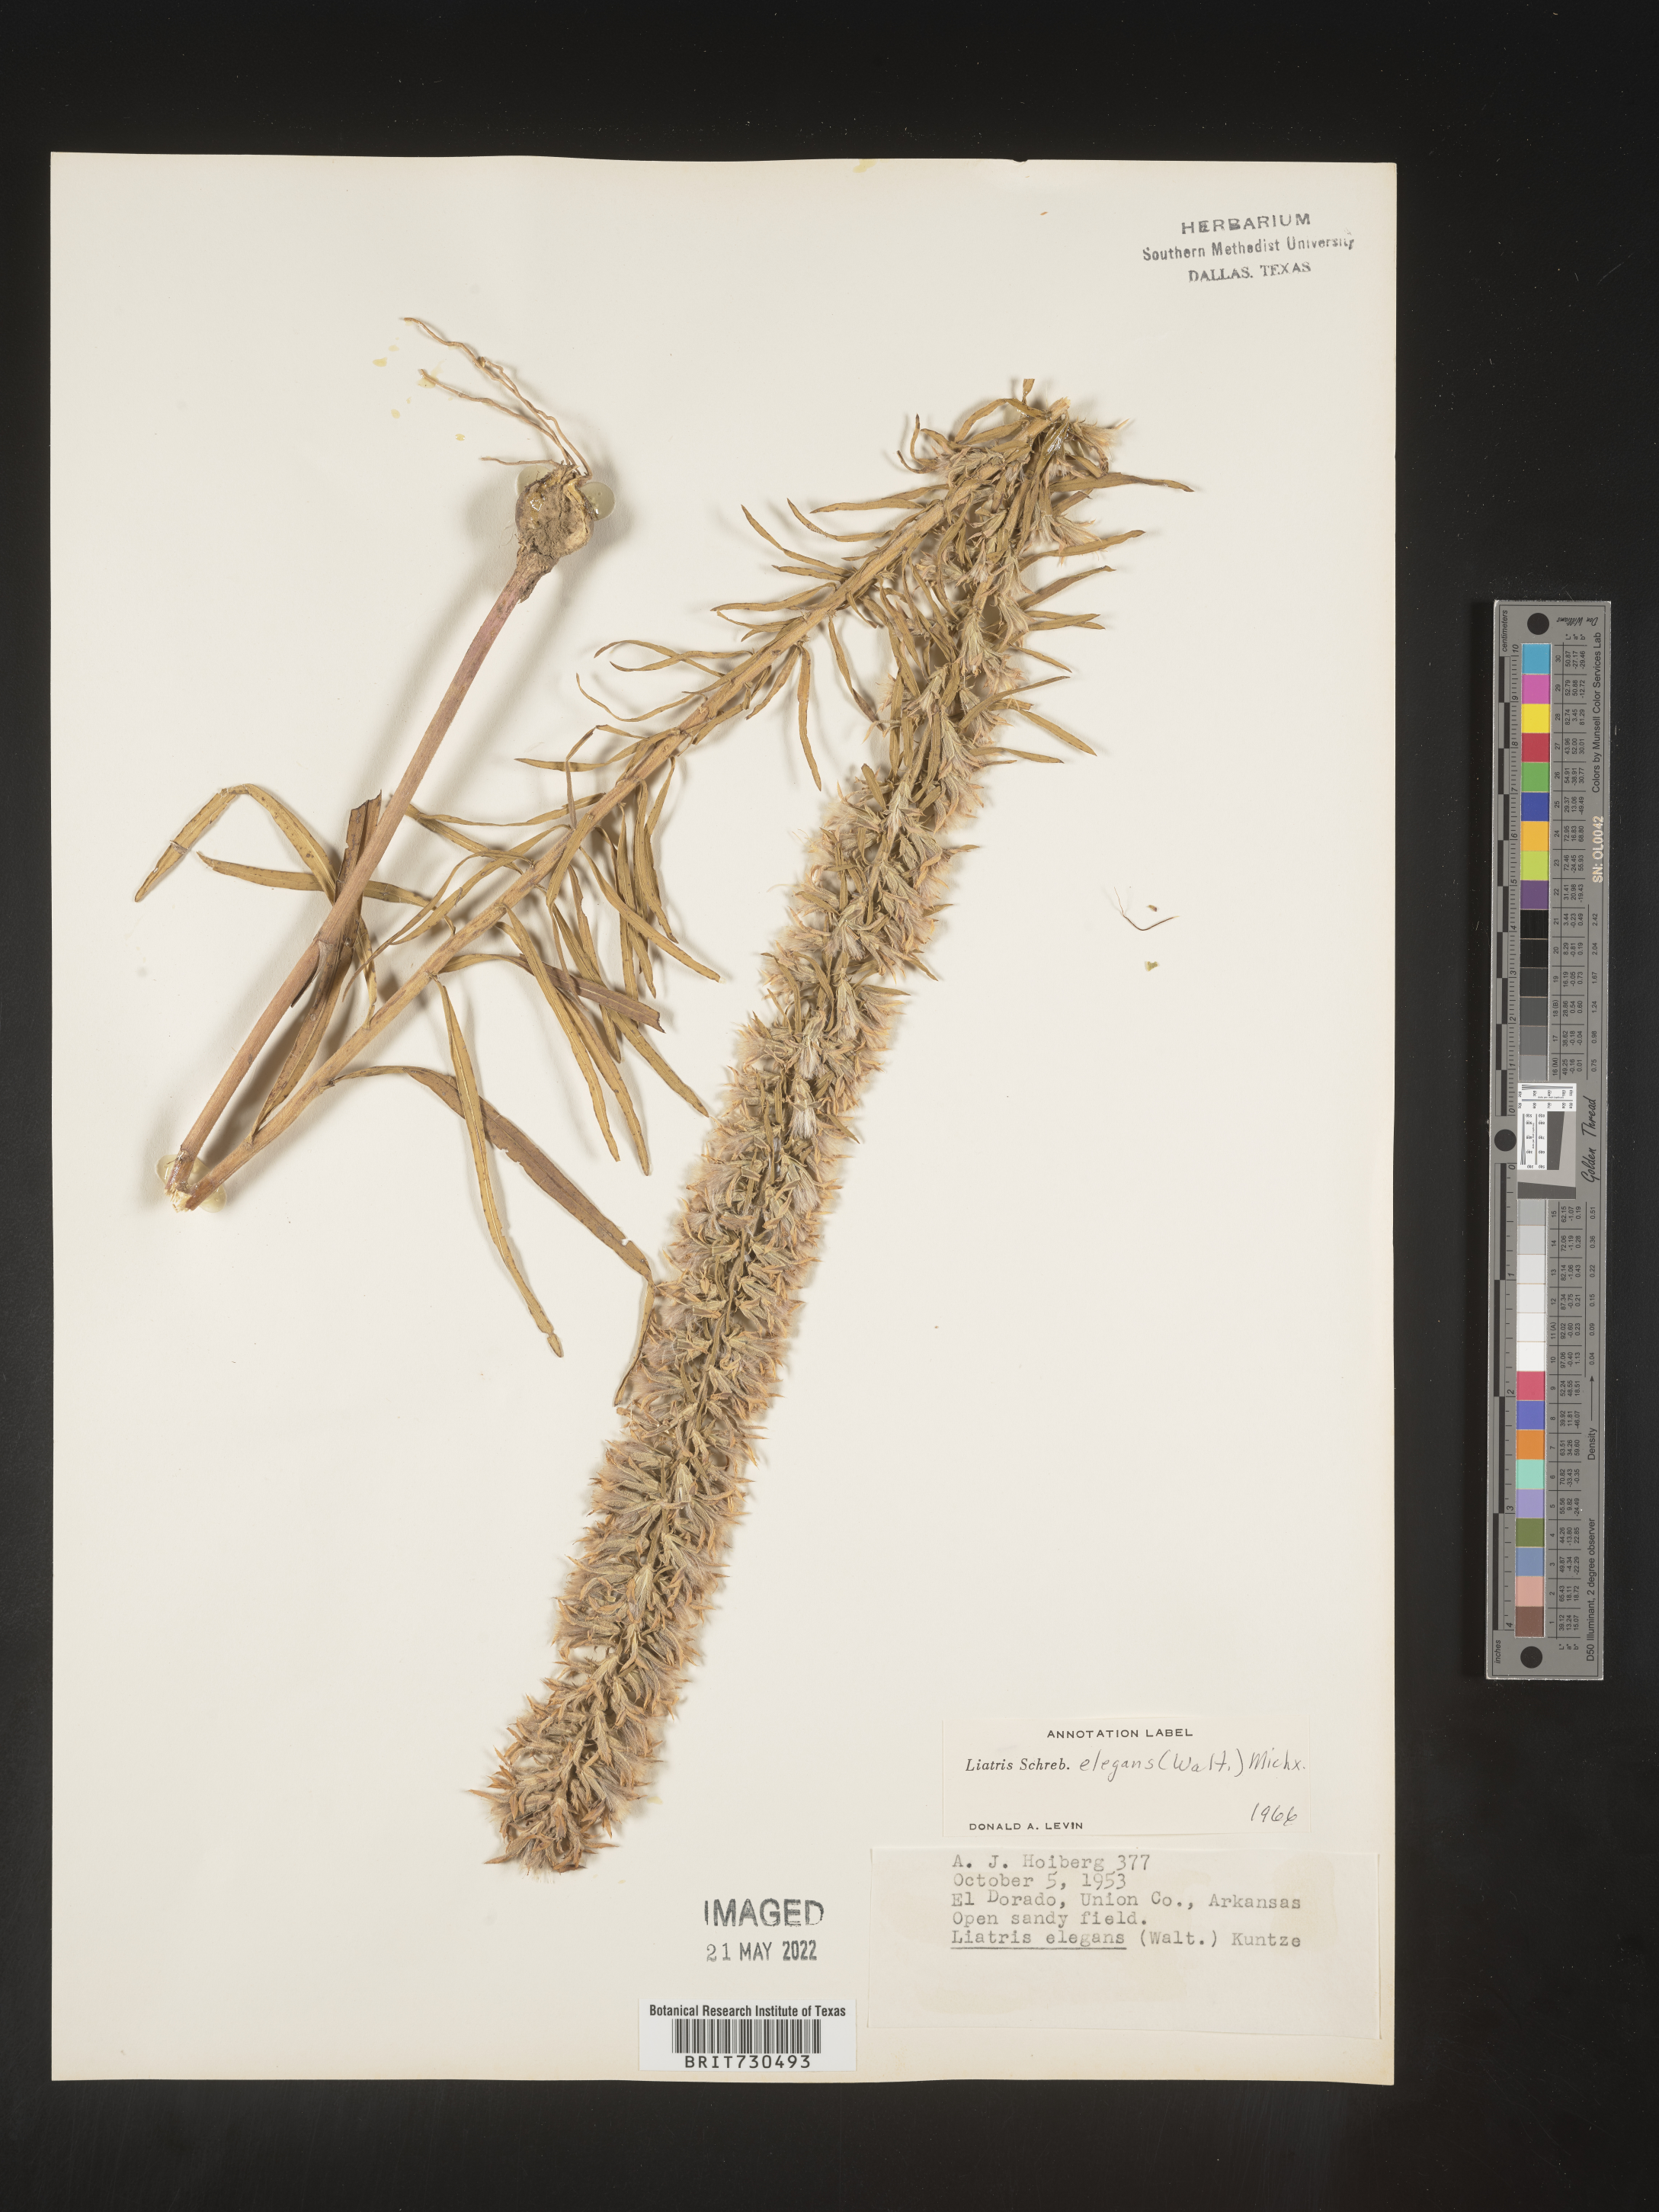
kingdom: Plantae
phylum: Tracheophyta
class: Magnoliopsida
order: Asterales
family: Asteraceae
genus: Liatris
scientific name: Liatris elegans
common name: Pinkscale gayfeather
